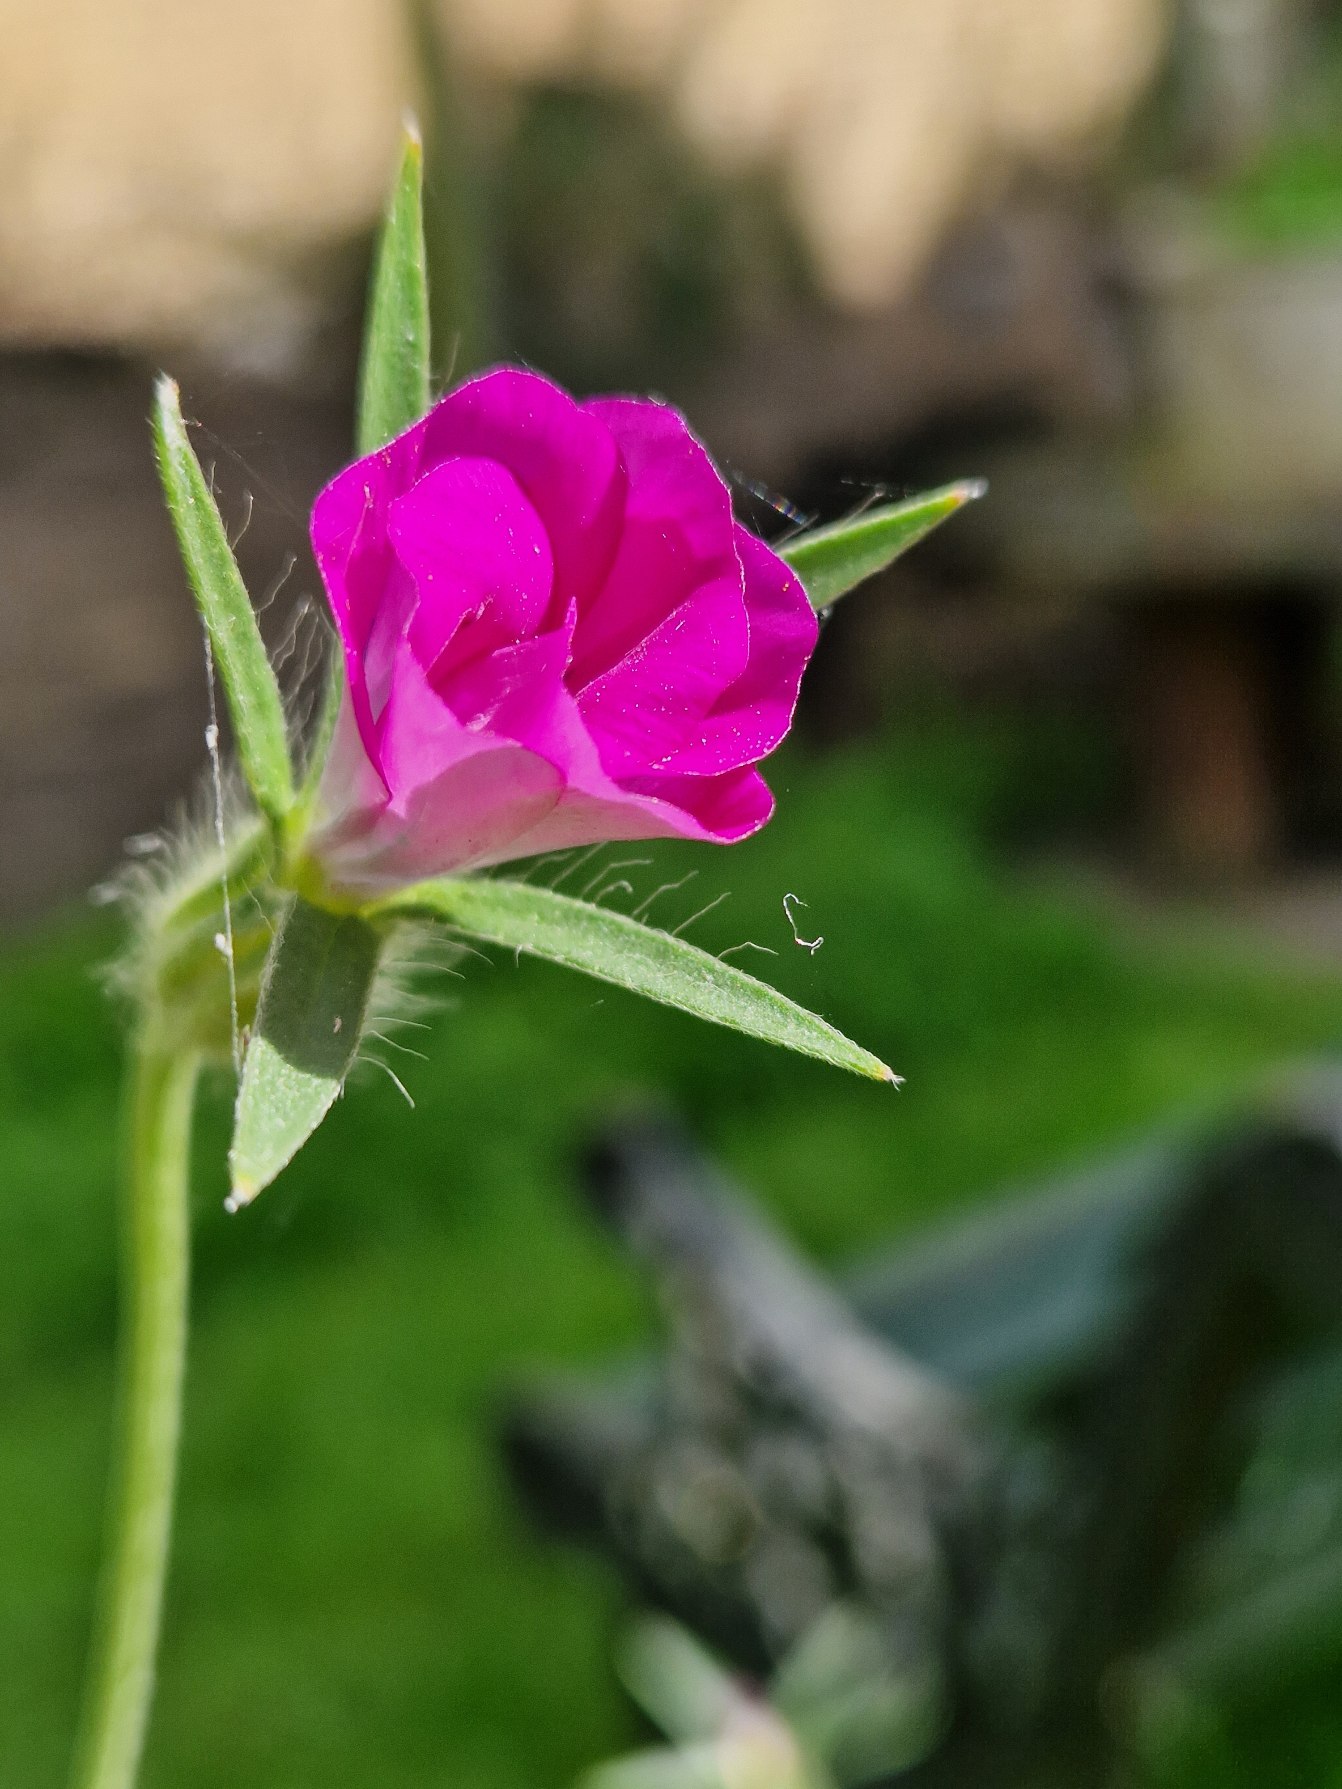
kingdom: Plantae
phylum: Tracheophyta
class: Magnoliopsida
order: Caryophyllales
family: Caryophyllaceae
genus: Agrostemma
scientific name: Agrostemma githago
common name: Klinte
